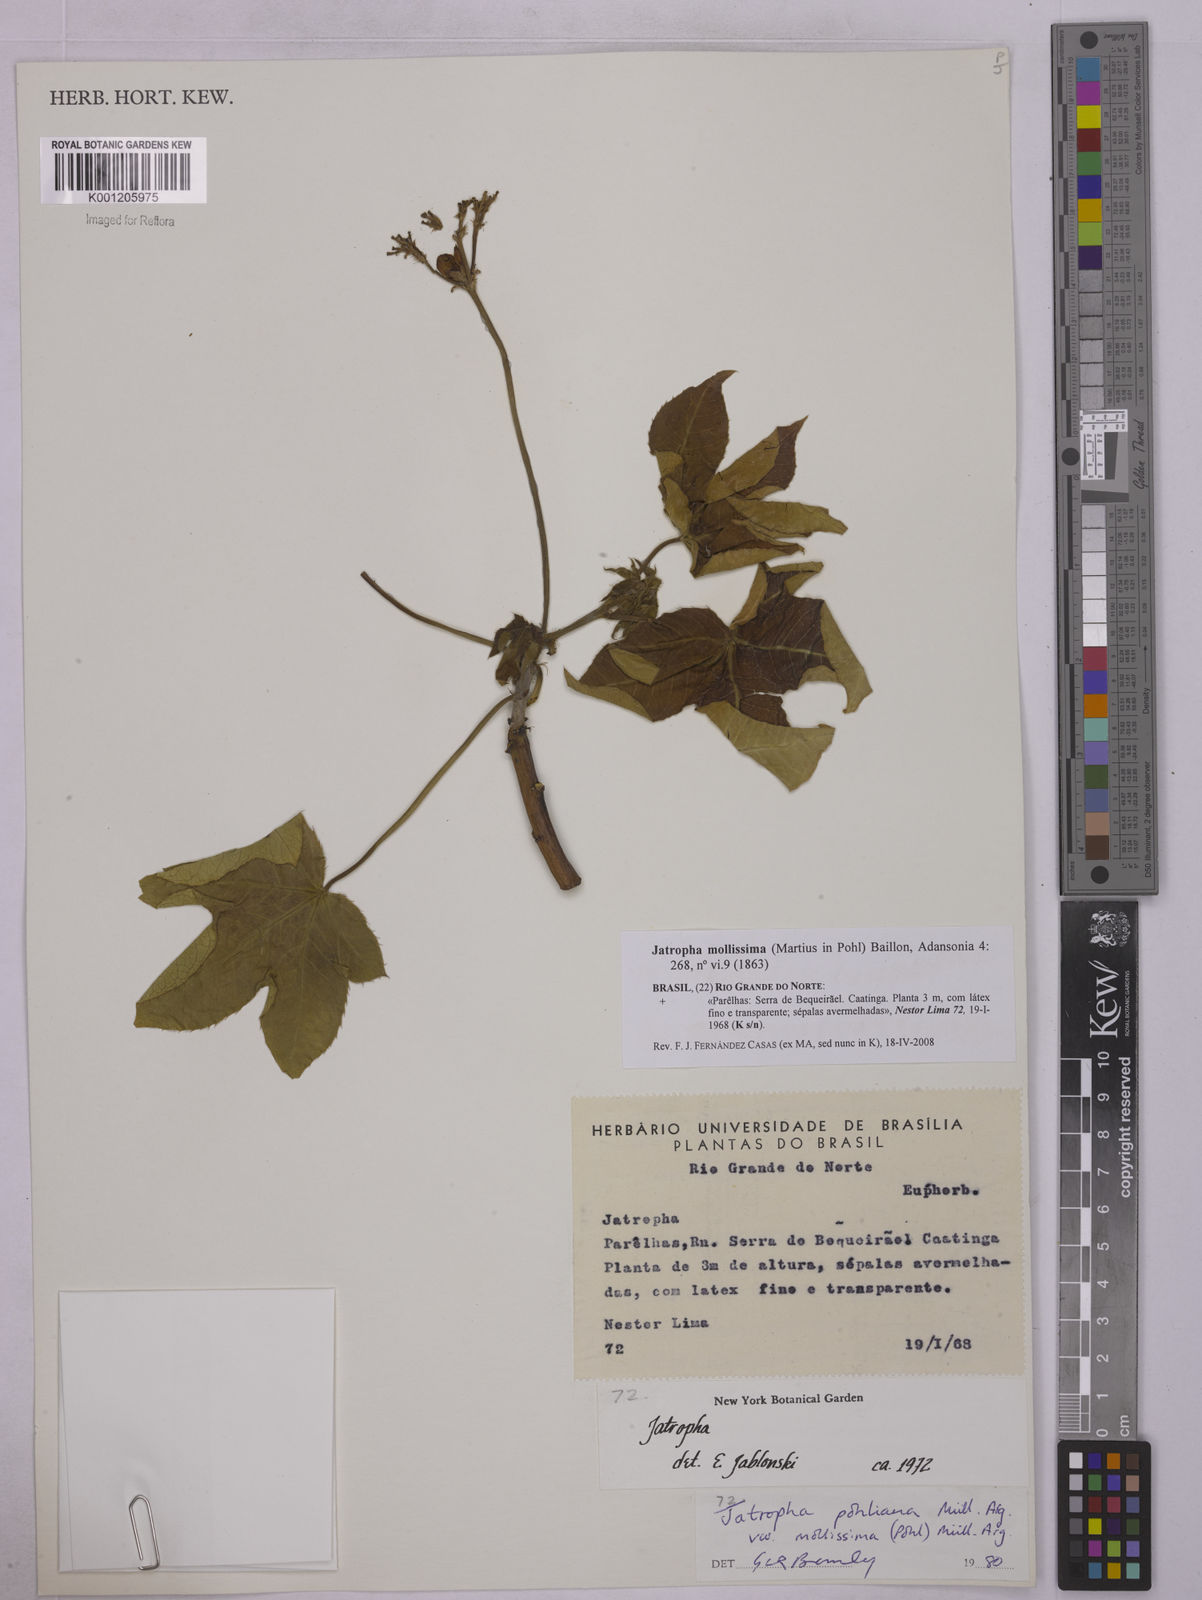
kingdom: Plantae
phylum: Tracheophyta
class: Magnoliopsida
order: Malpighiales
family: Euphorbiaceae
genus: Jatropha
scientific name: Jatropha mollissima
